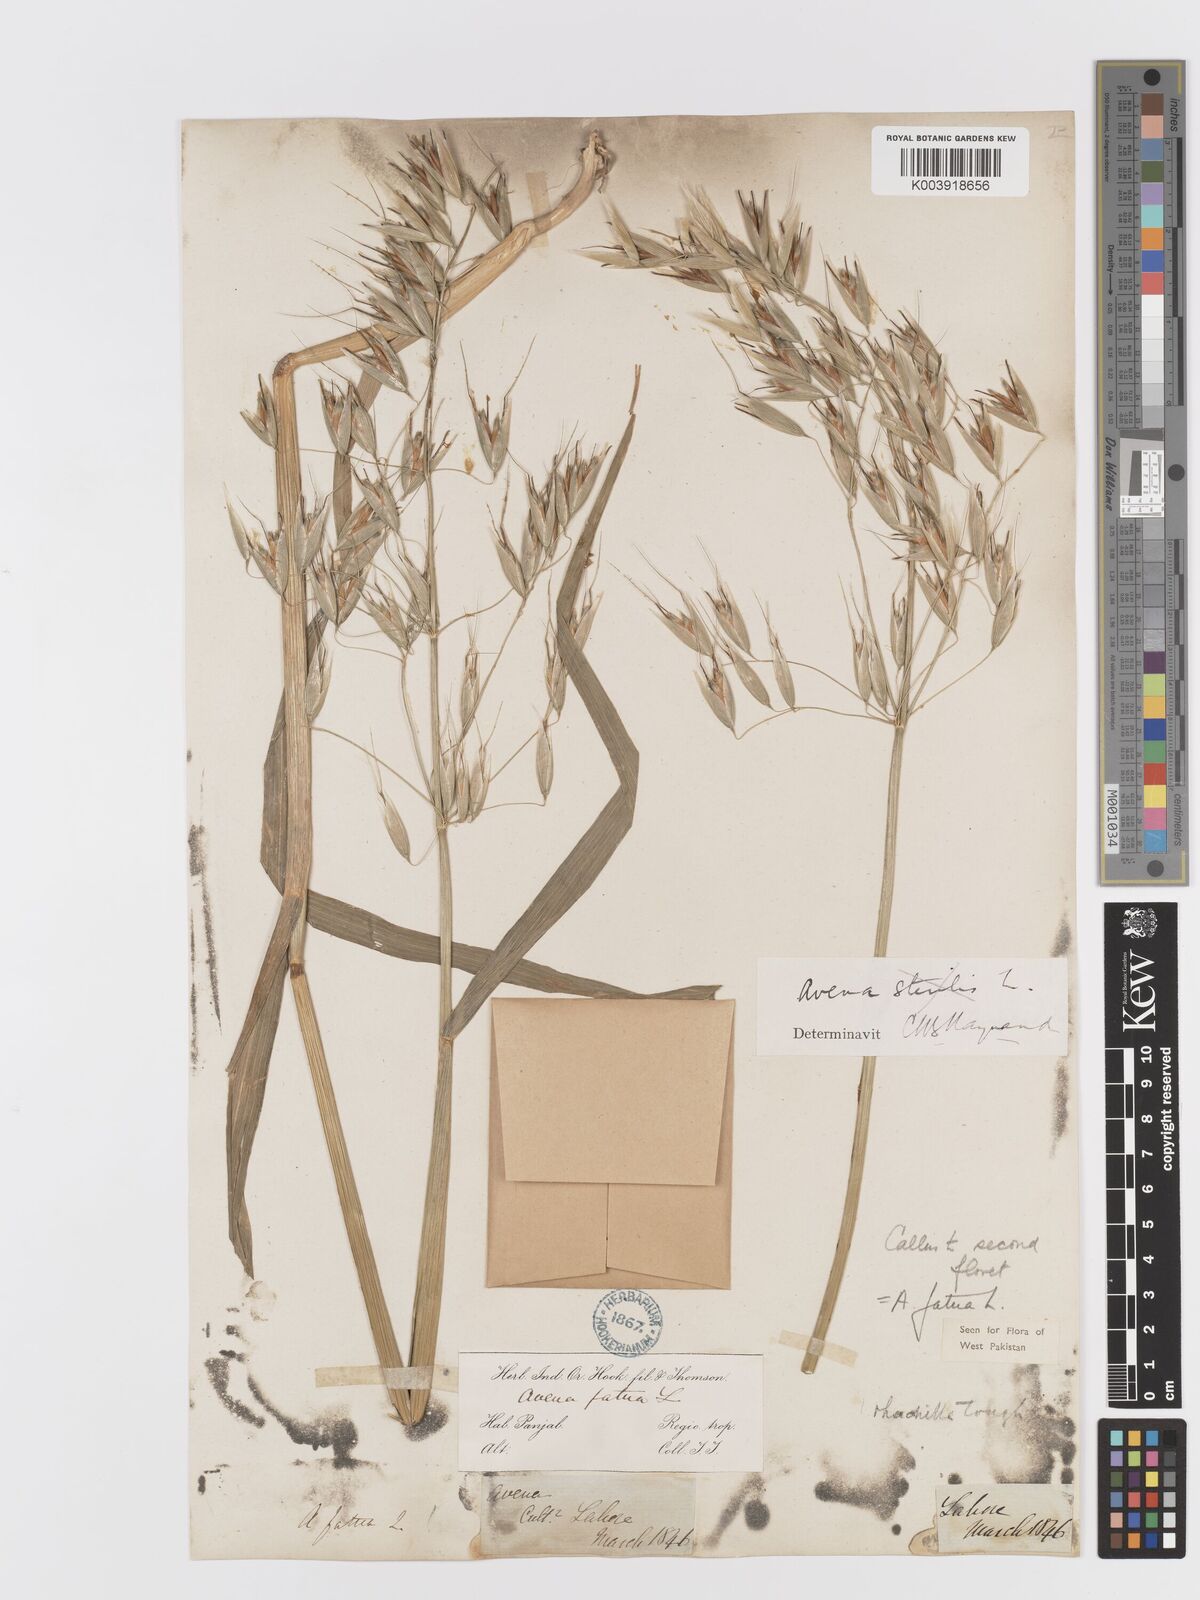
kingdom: Plantae
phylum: Tracheophyta
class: Liliopsida
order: Poales
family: Poaceae
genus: Avena
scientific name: Avena fatua
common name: Wild oat
